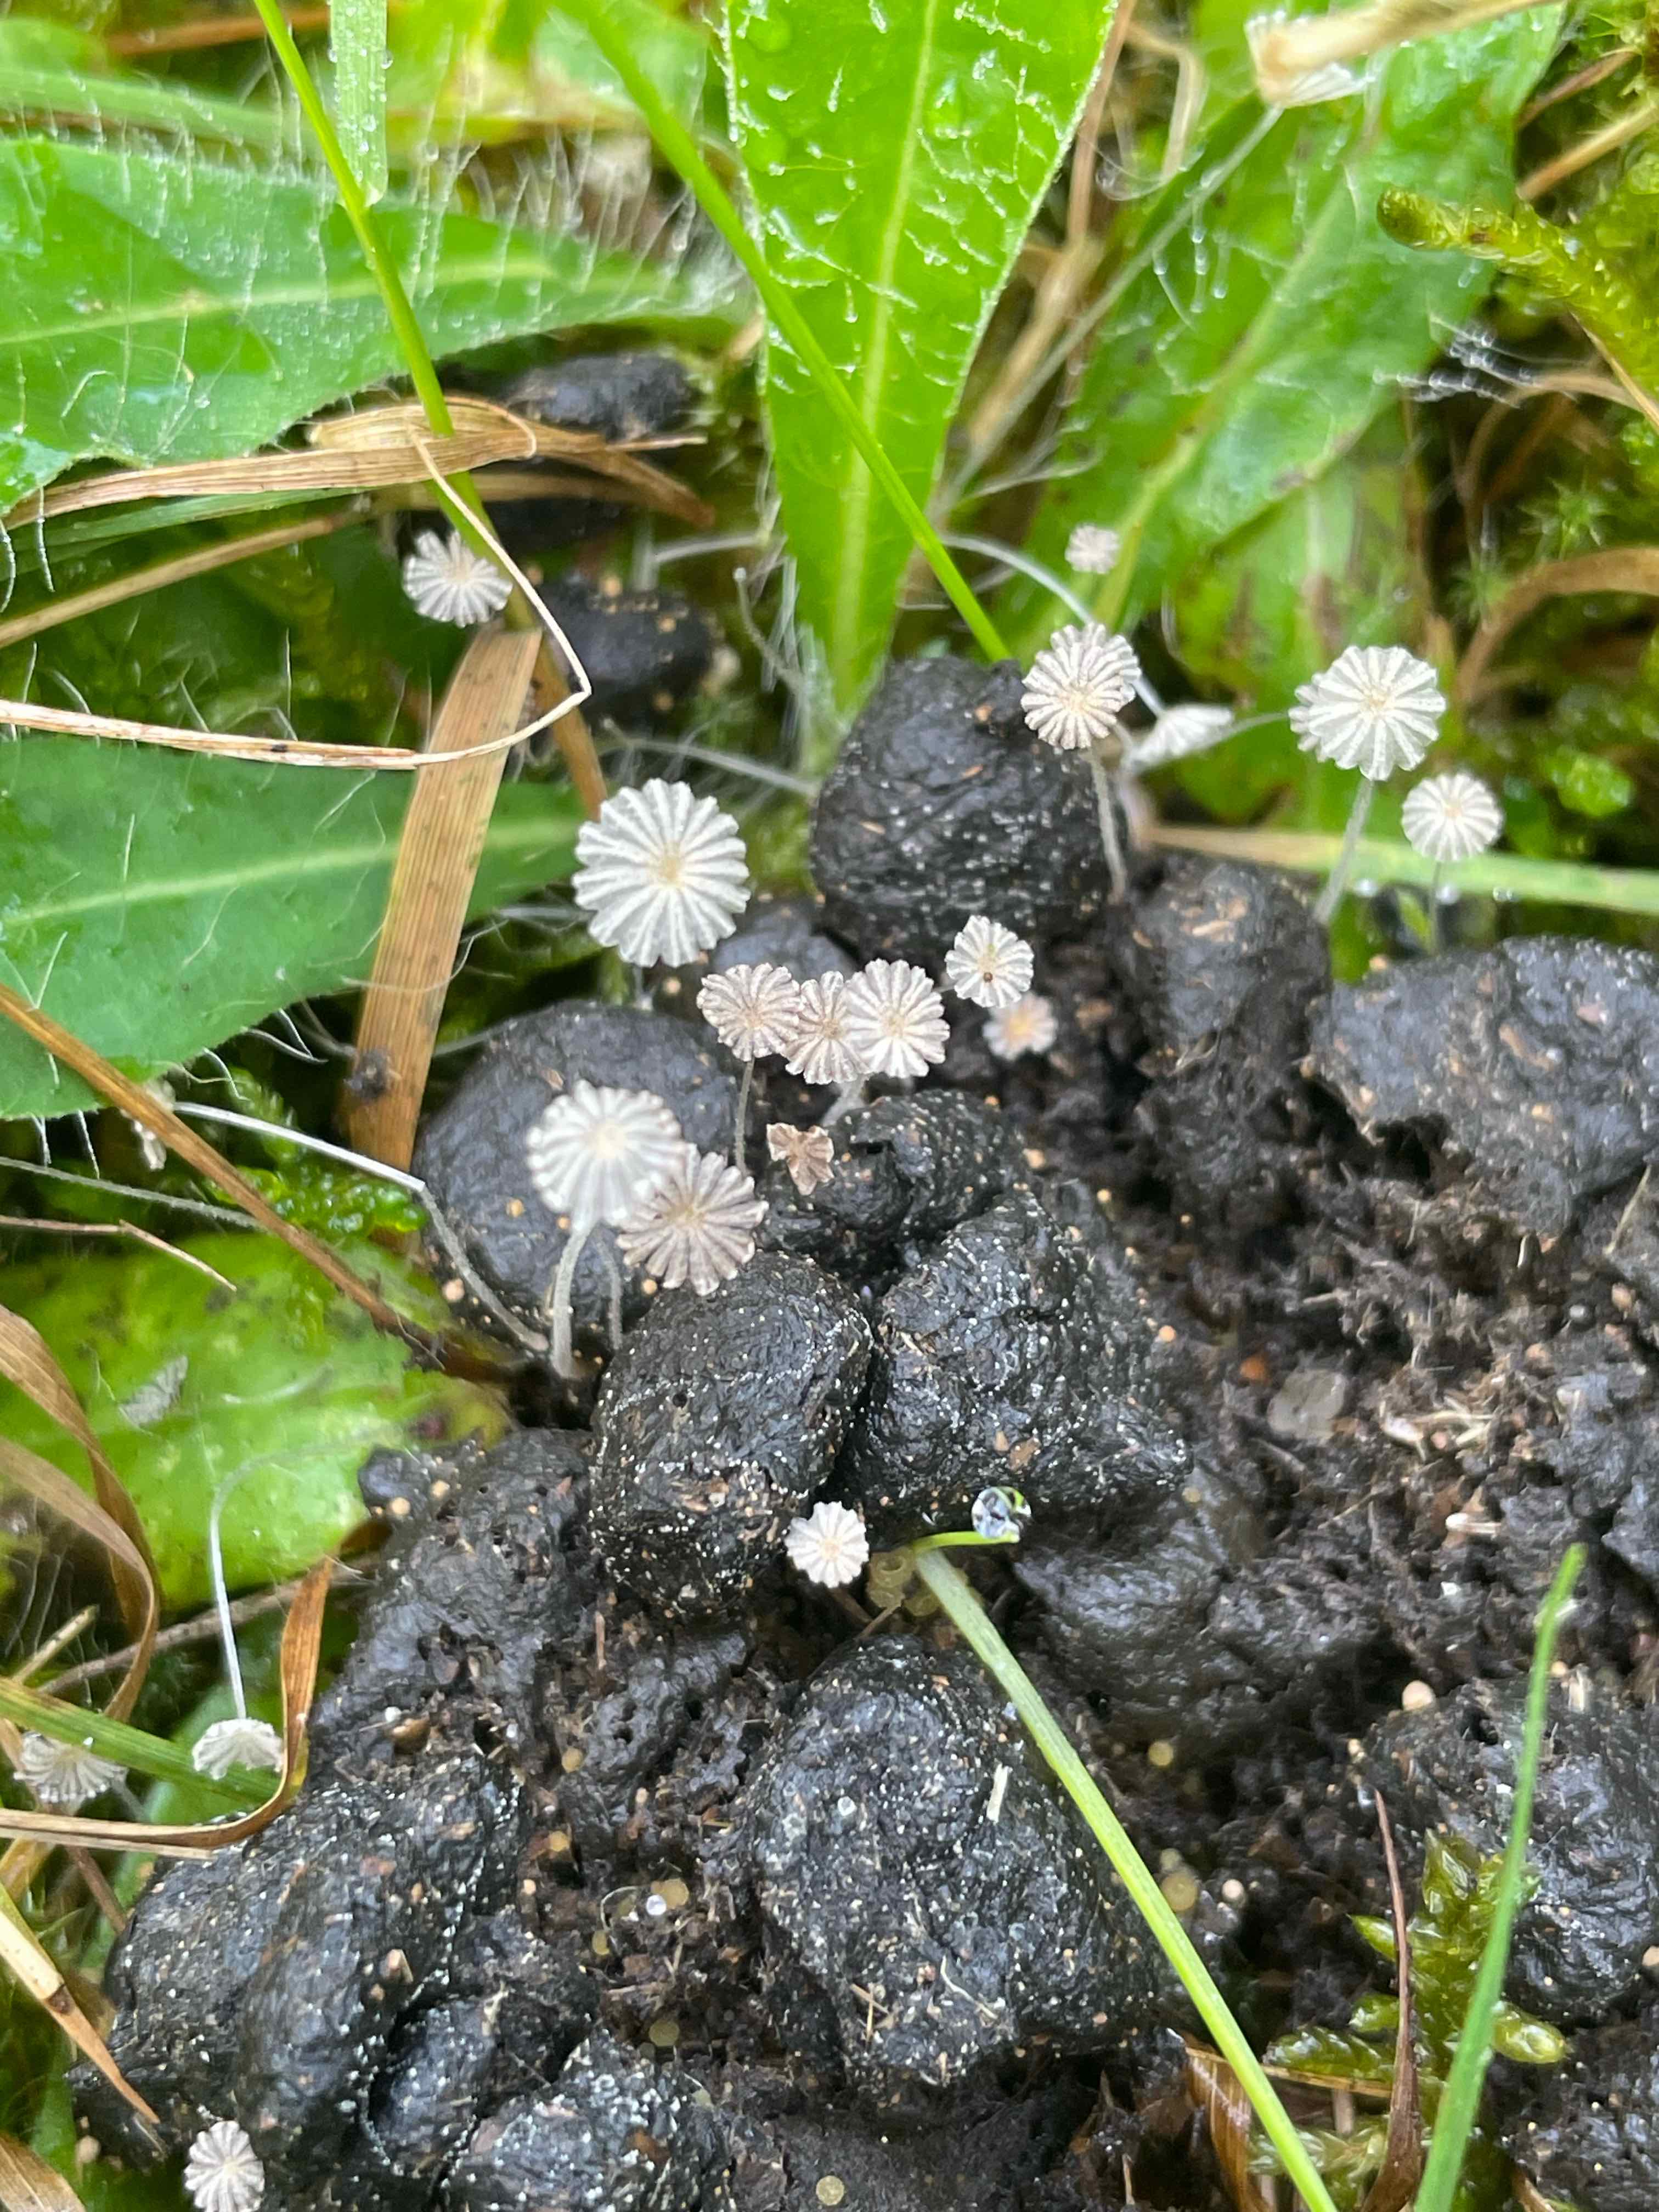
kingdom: Fungi
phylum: Basidiomycota
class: Agaricomycetes
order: Agaricales
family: Psathyrellaceae
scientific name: Psathyrellaceae
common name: mørkhatfamilien
